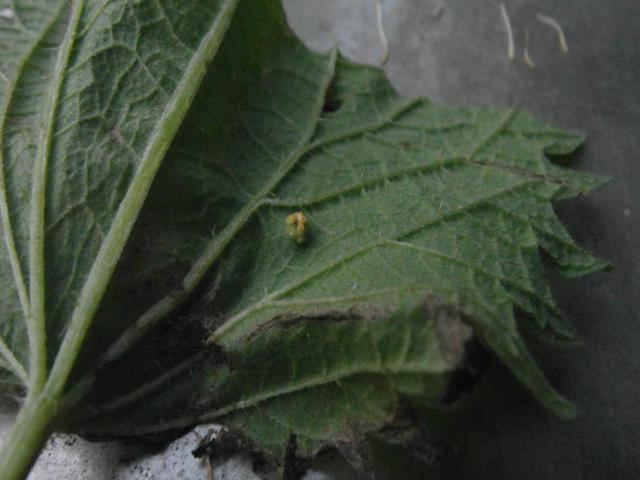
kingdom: Fungi
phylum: Basidiomycota
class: Pucciniomycetes
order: Pucciniales
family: Pucciniaceae
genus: Puccinia
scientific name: Puccinia urticata
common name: nældegalle-tvecellerust
